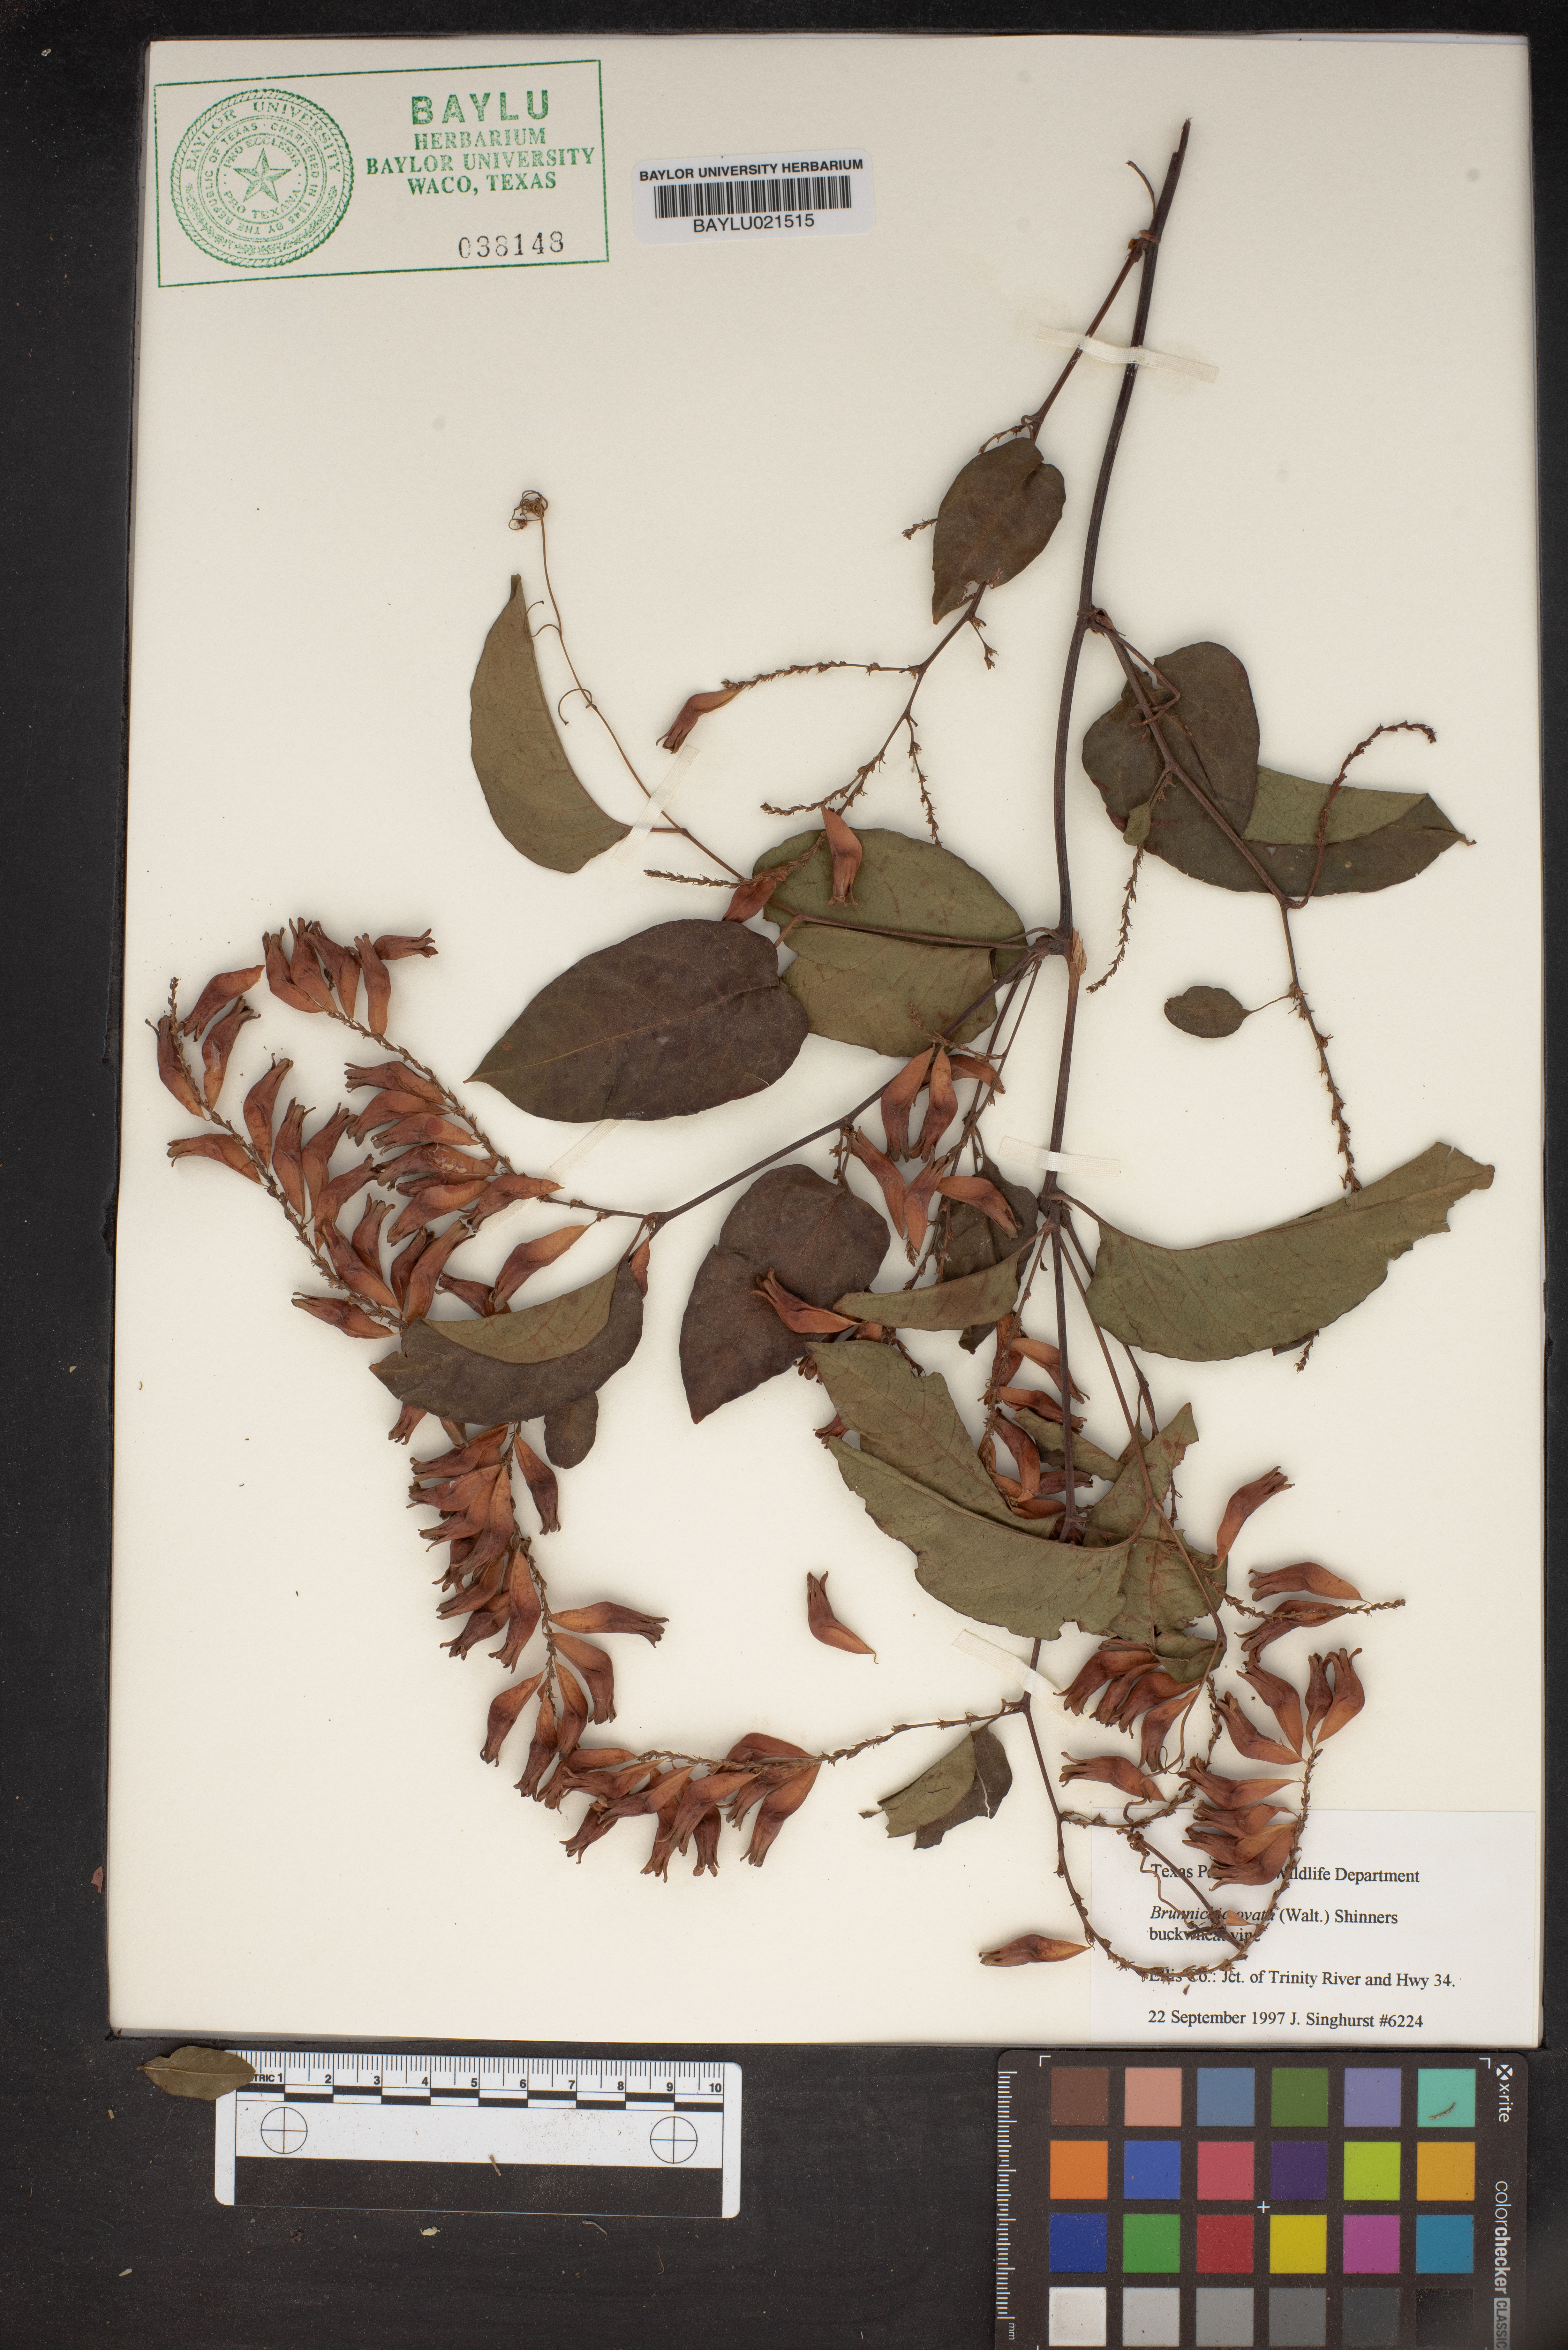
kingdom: Plantae
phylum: Tracheophyta
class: Magnoliopsida
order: Caryophyllales
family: Polygonaceae
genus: Brunnichia
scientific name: Brunnichia ovata
